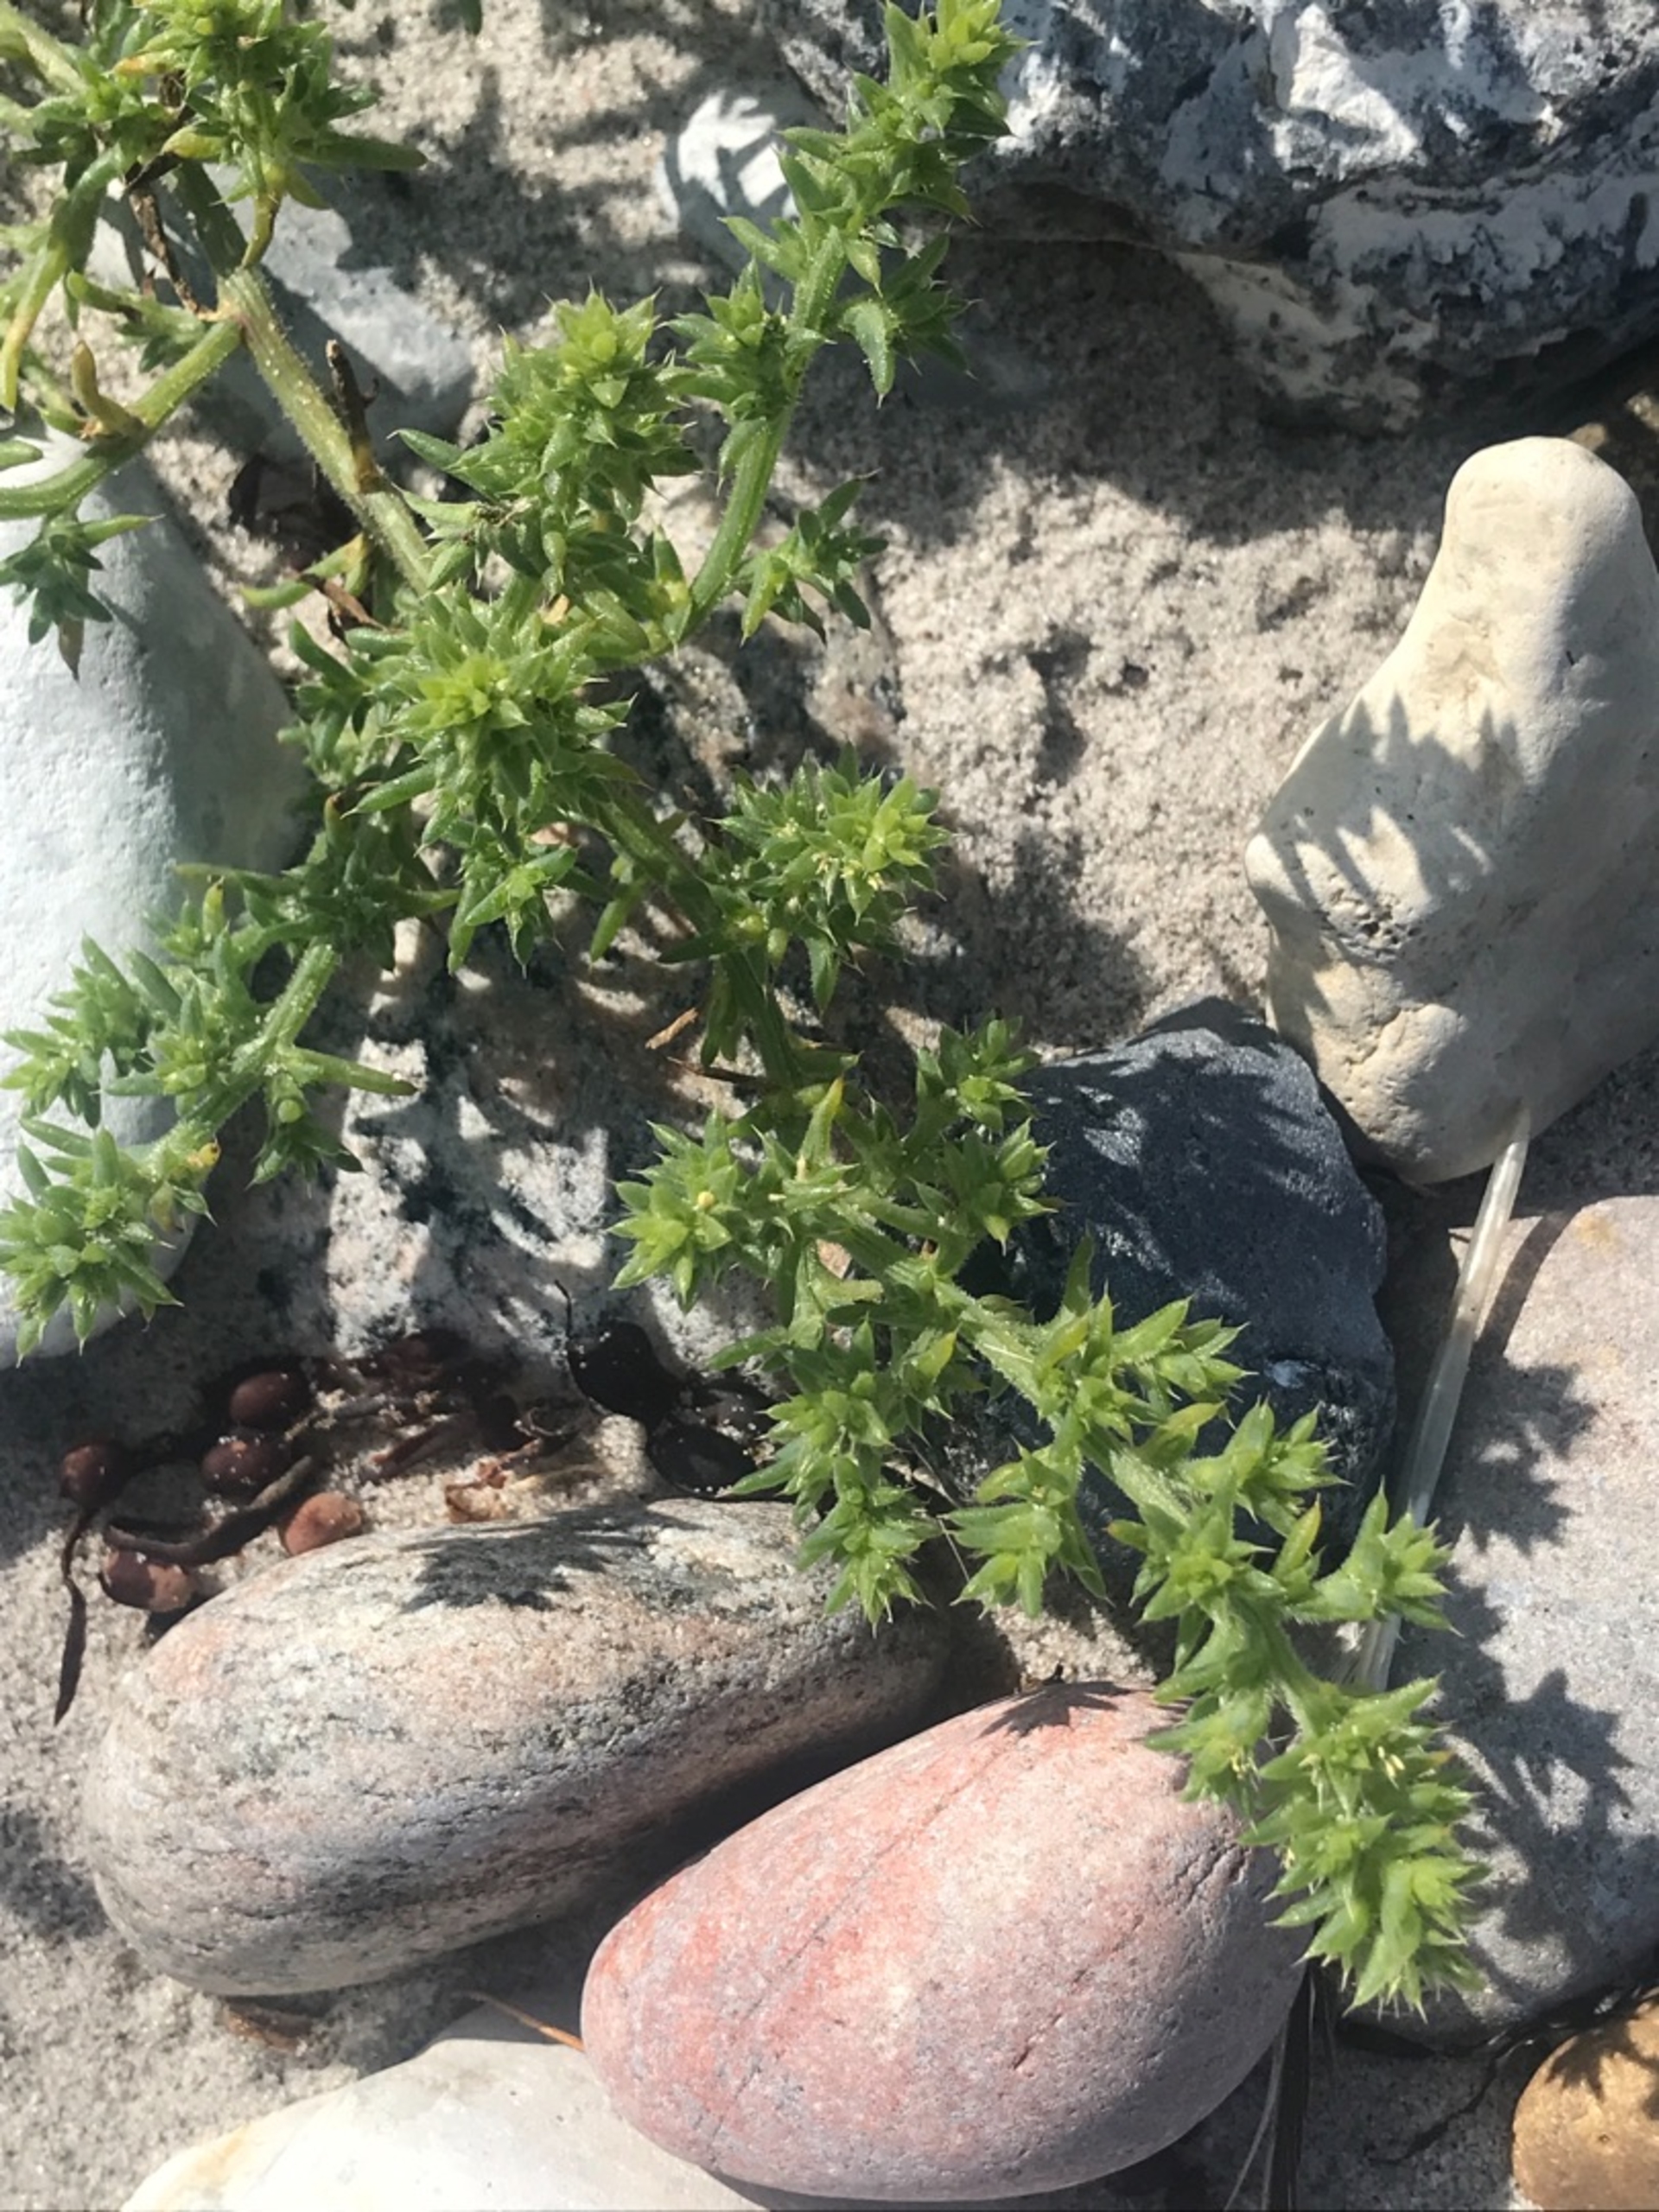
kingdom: Plantae
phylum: Tracheophyta
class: Magnoliopsida
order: Caryophyllales
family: Amaranthaceae
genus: Salsola
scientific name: Salsola kali
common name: Sodaurt
